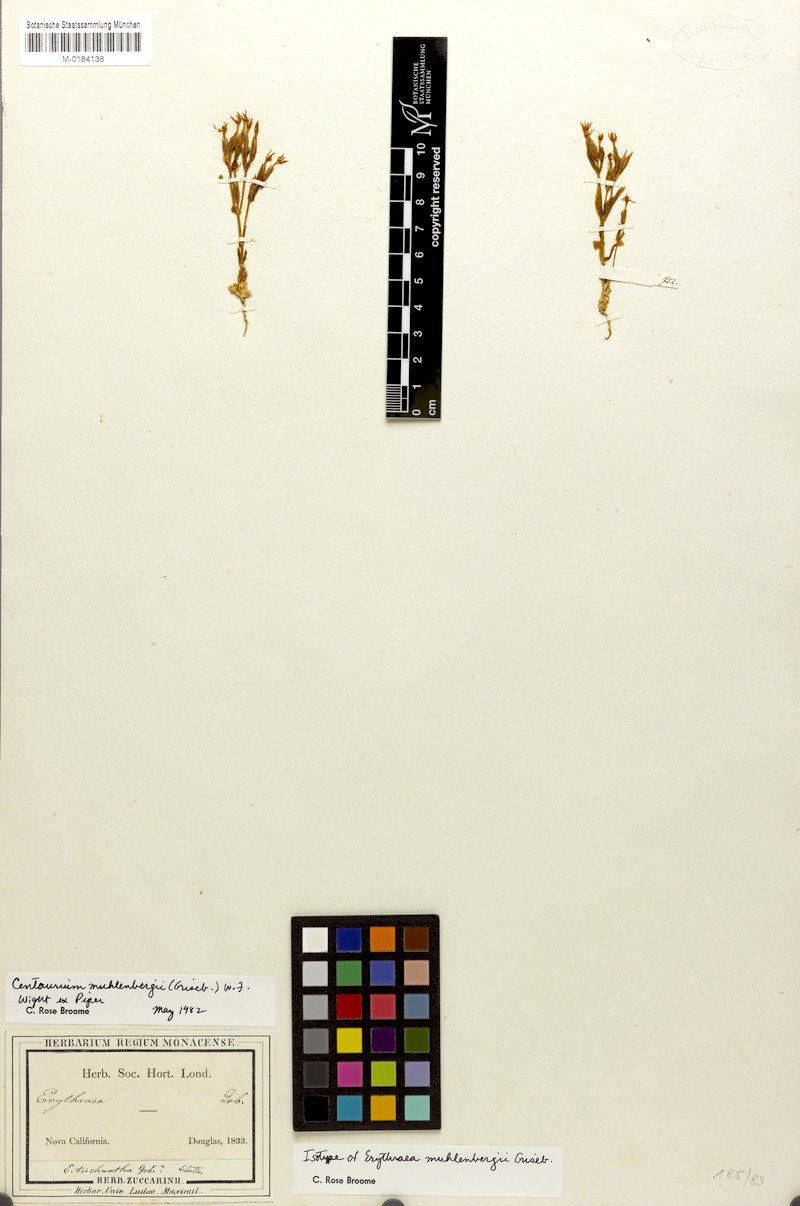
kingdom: Plantae
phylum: Tracheophyta
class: Magnoliopsida
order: Gentianales
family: Gentianaceae
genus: Zeltnera
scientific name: Zeltnera muhlenbergii
